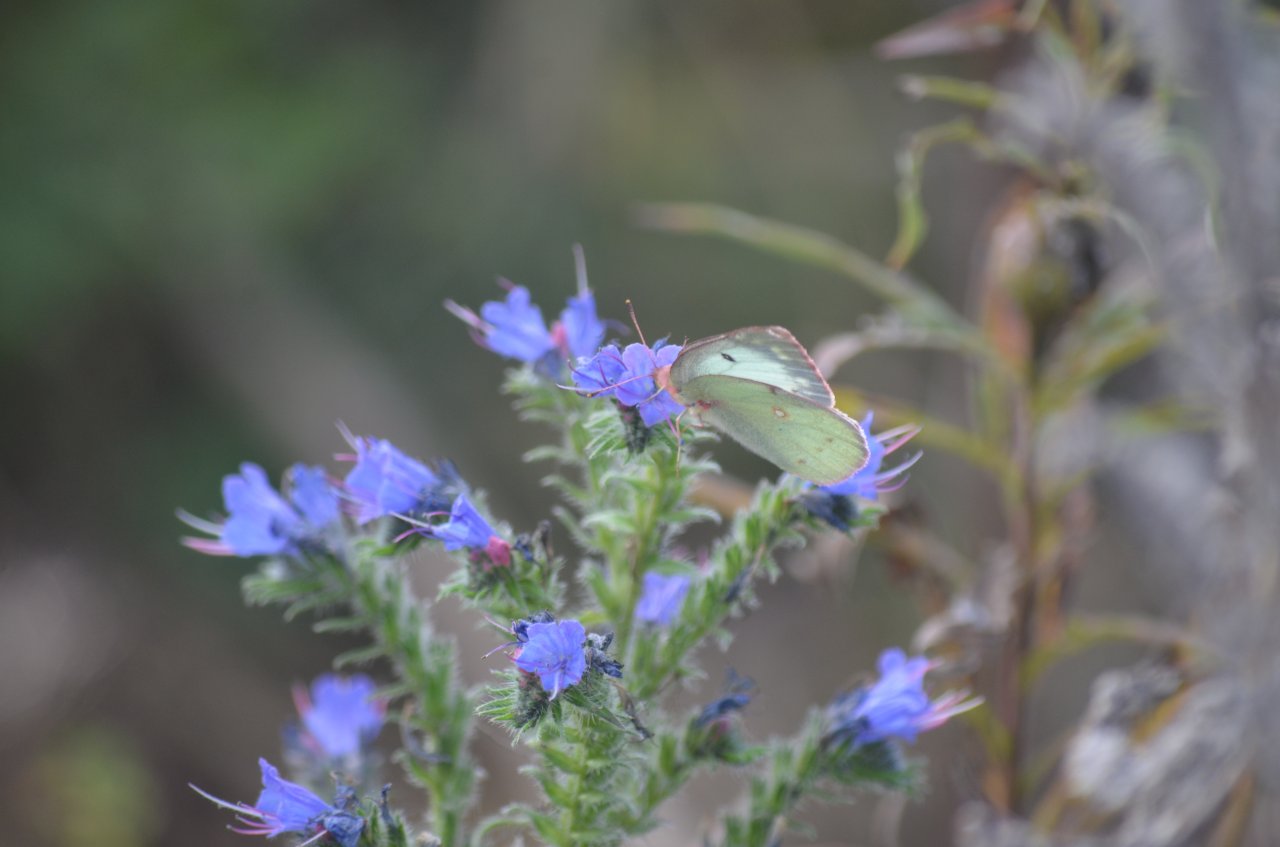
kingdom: Animalia
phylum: Arthropoda
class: Insecta
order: Lepidoptera
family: Pieridae
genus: Colias
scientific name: Colias philodice
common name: Clouded Sulphur
